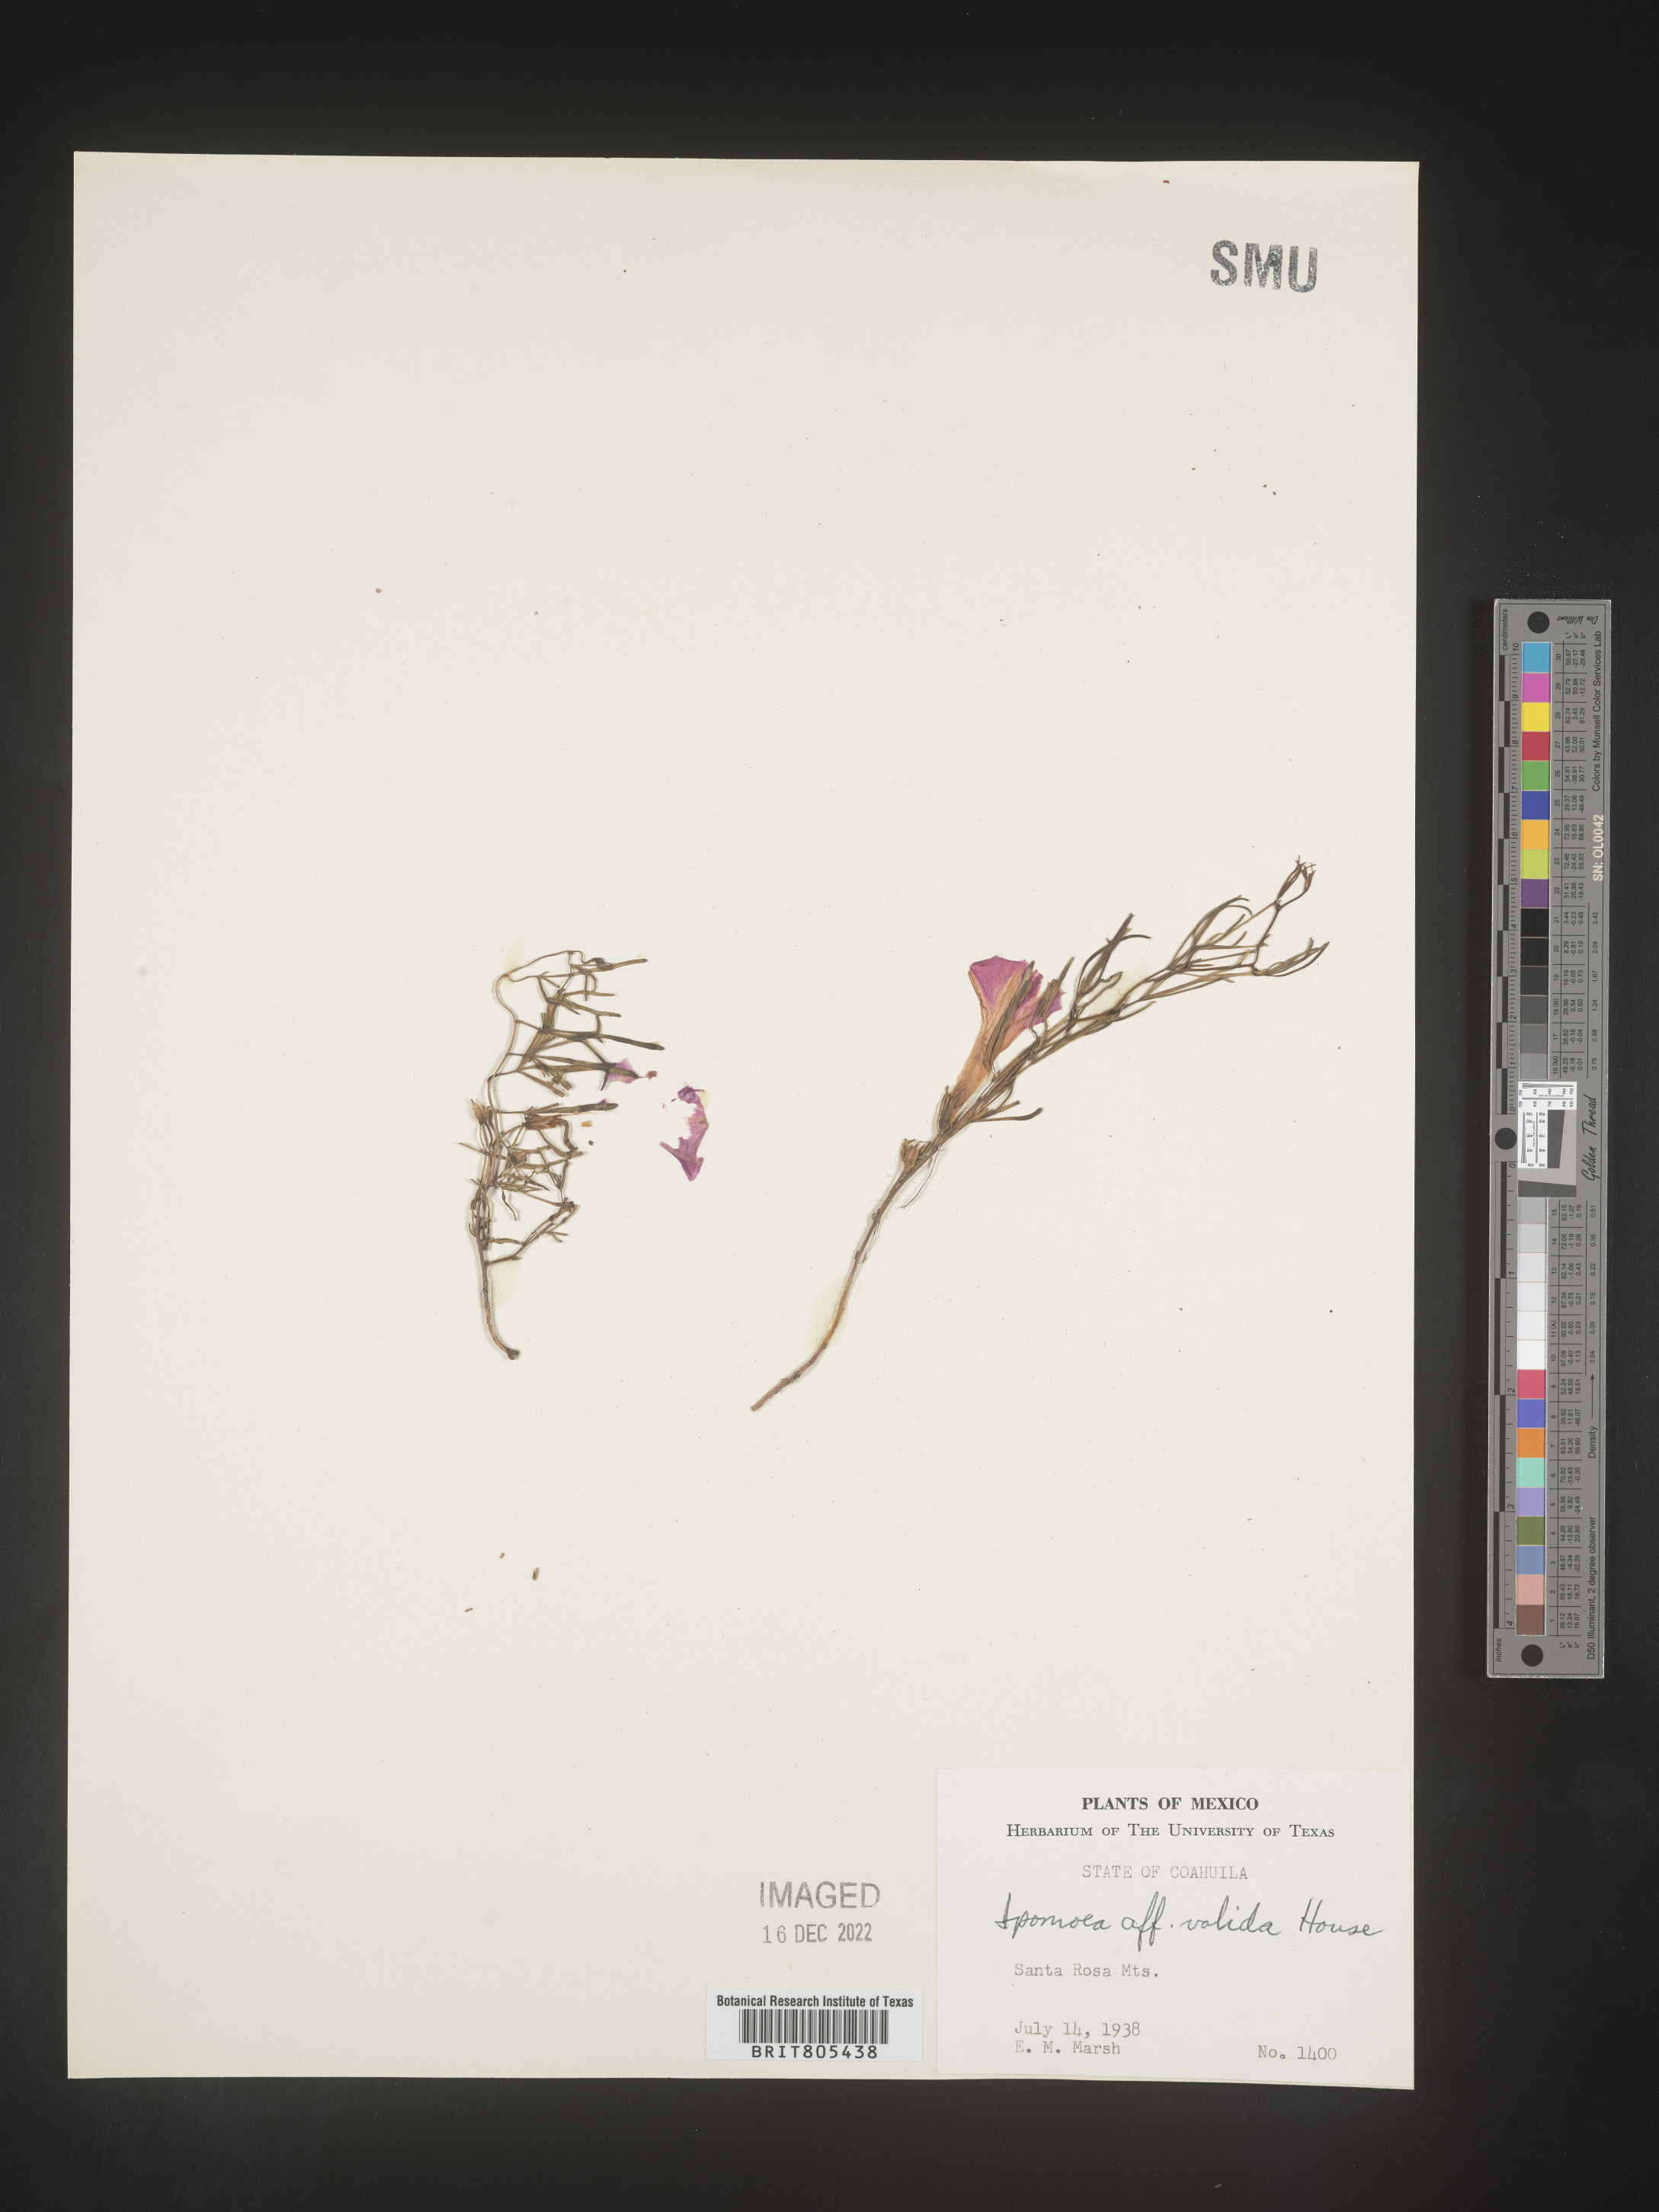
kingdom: Plantae
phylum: Tracheophyta
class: Magnoliopsida
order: Solanales
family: Convolvulaceae
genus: Ipomoea
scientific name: Ipomoea
